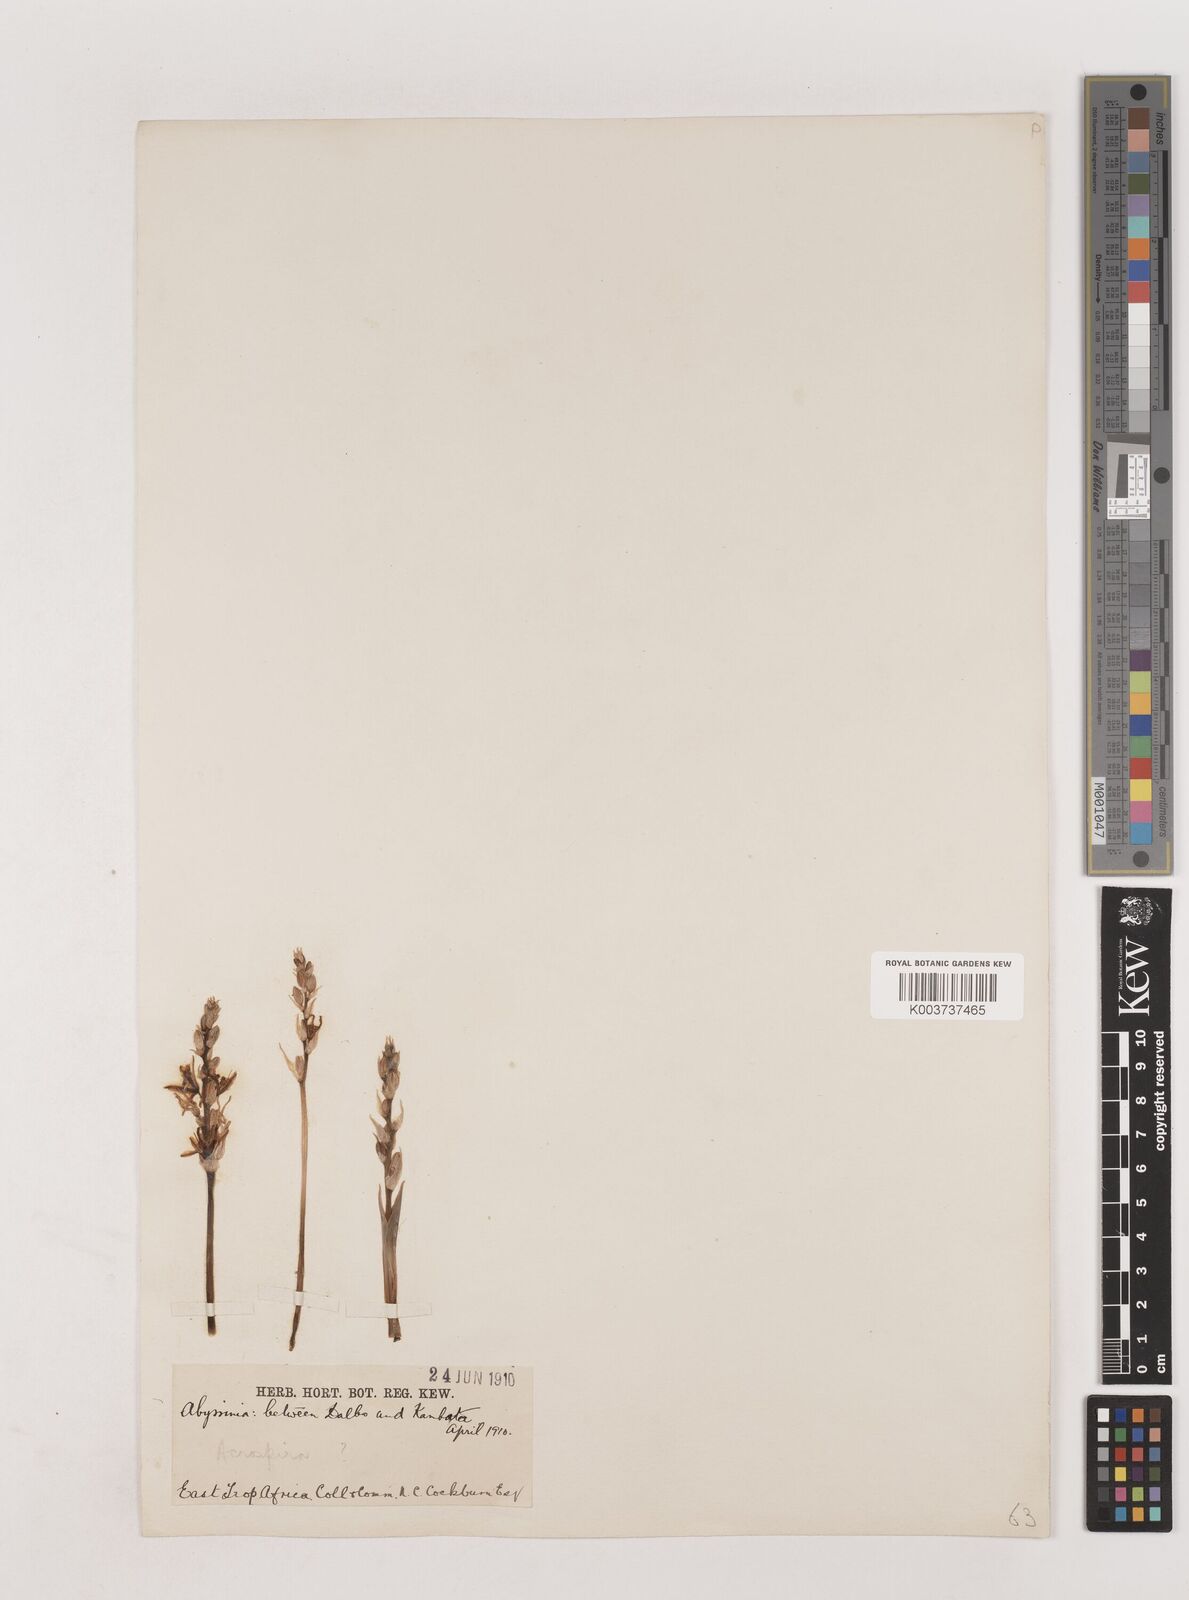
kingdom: Plantae
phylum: Tracheophyta
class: Liliopsida
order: Asparagales
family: Asparagaceae
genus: Chlorophytum
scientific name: Chlorophytum subpetiolatum
